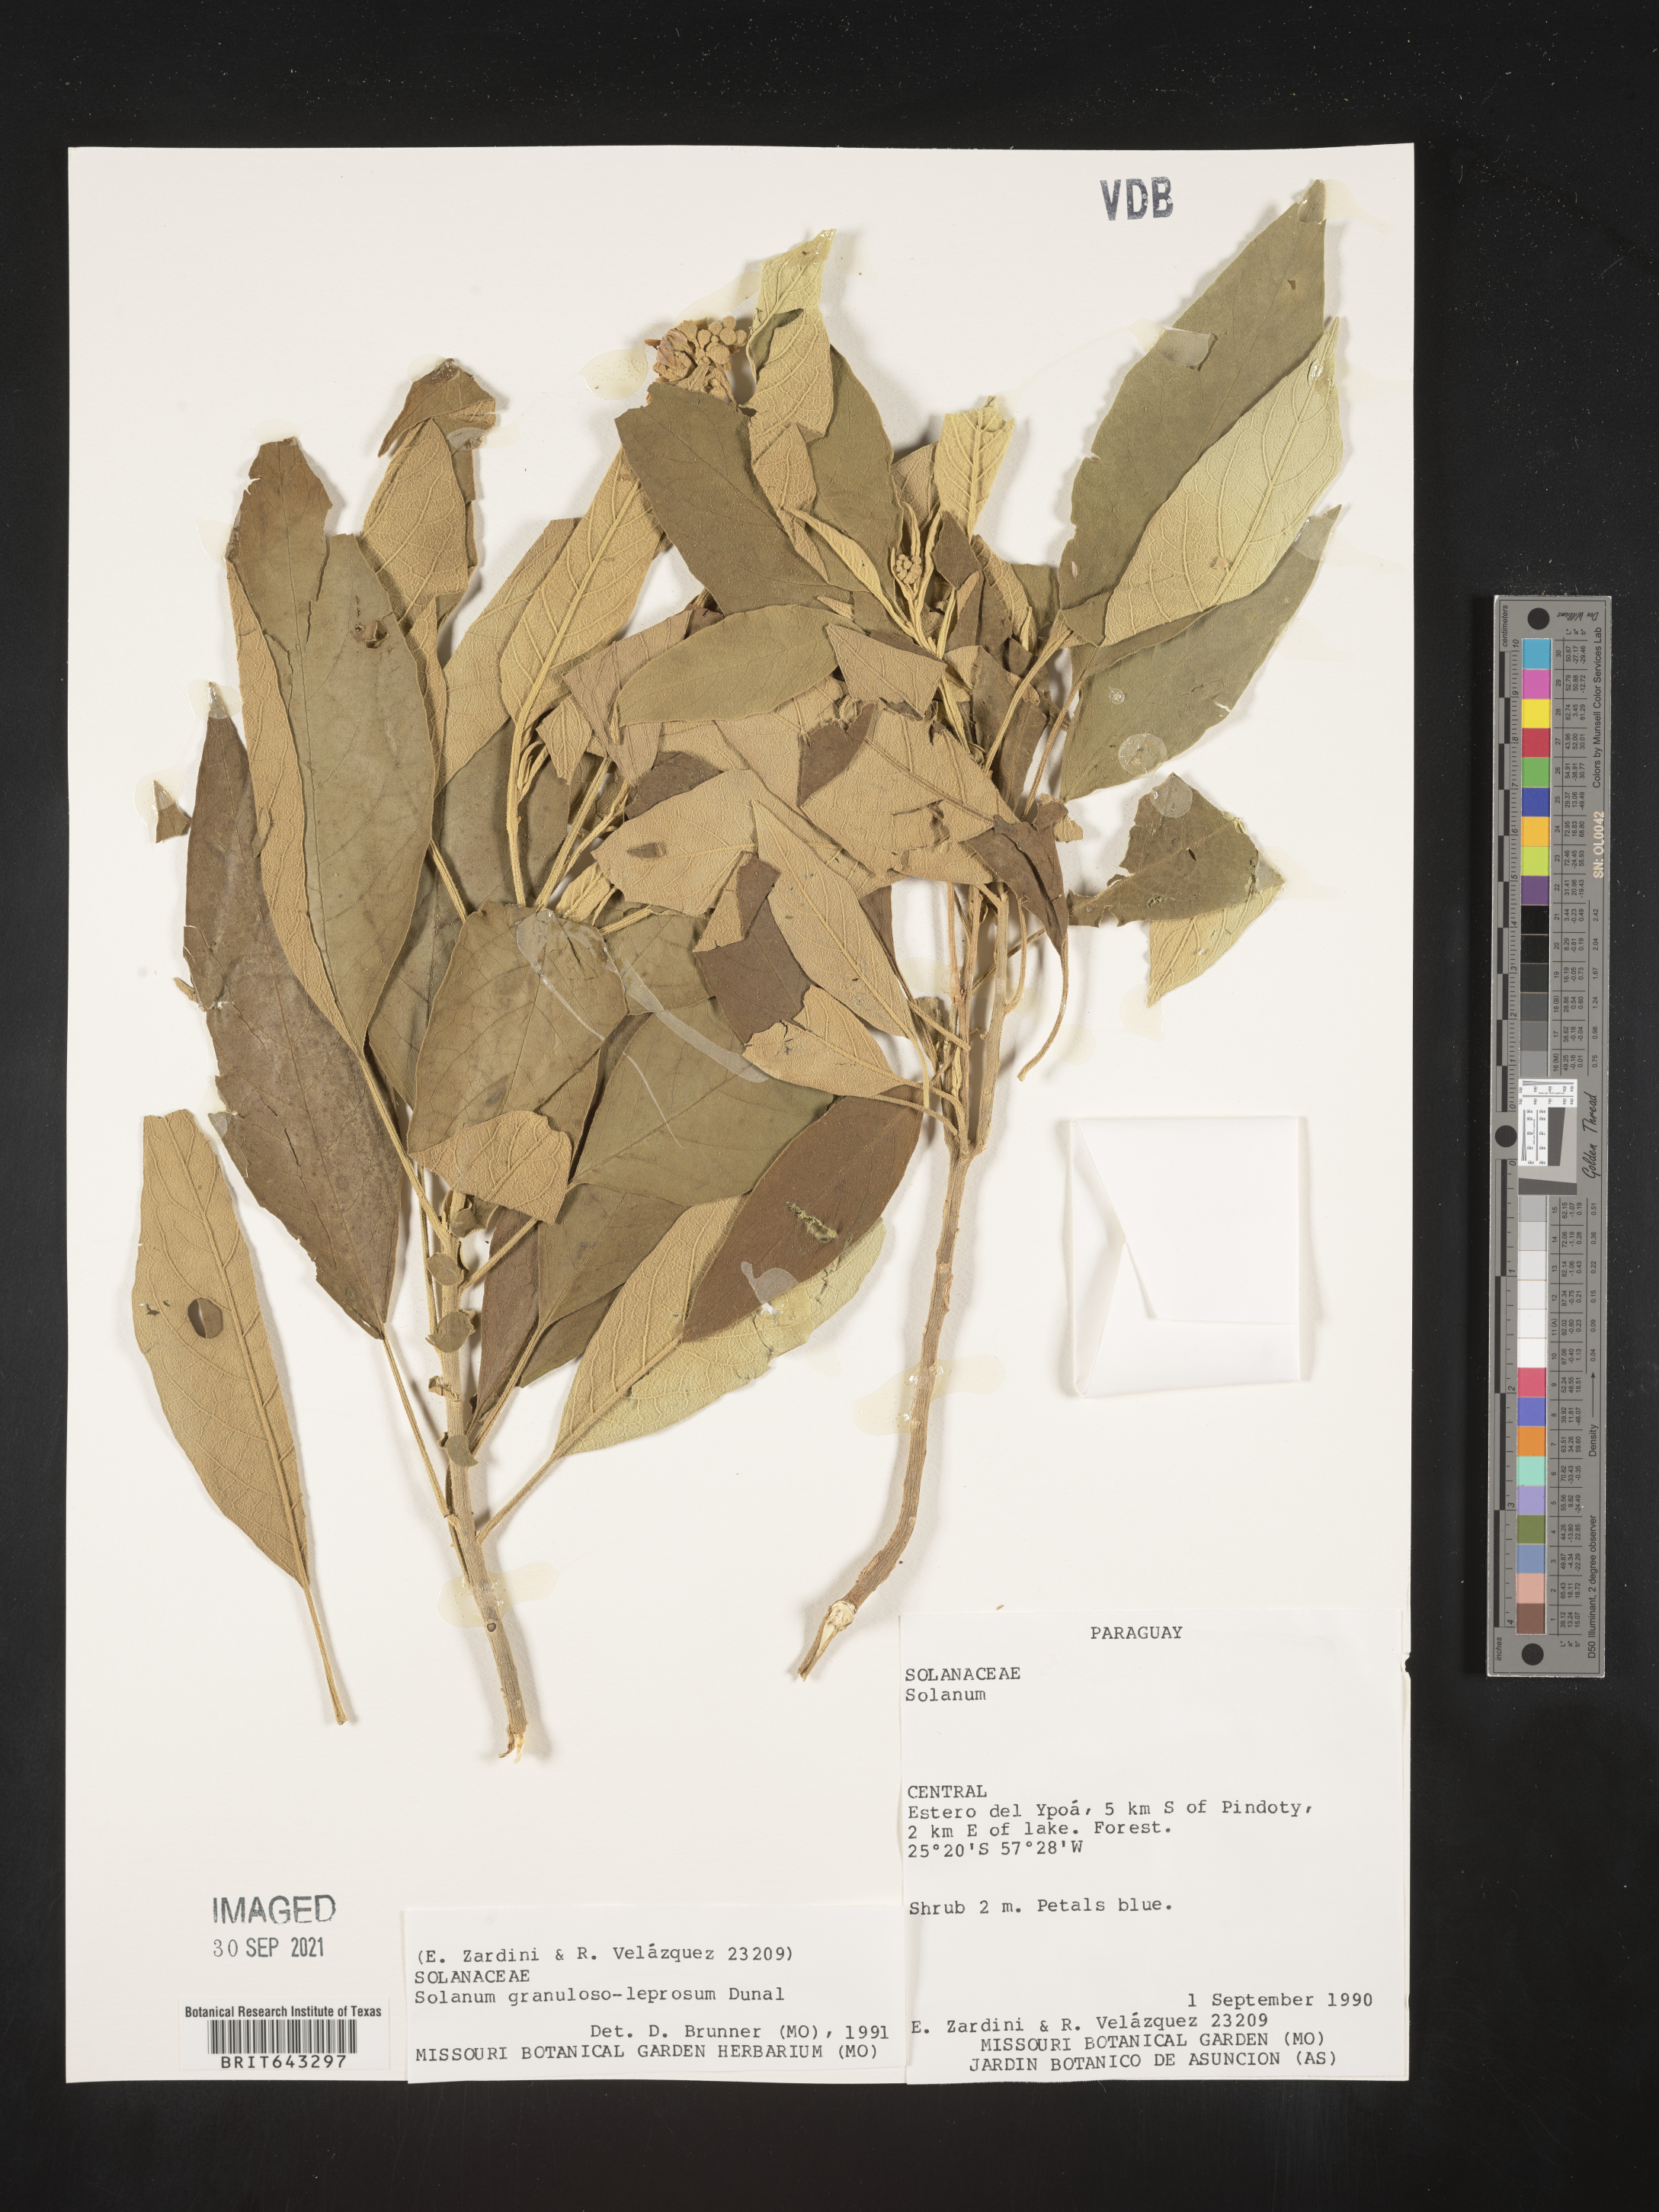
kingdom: Plantae
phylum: Tracheophyta
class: Magnoliopsida
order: Solanales
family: Solanaceae
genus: Solanum
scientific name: Solanum
